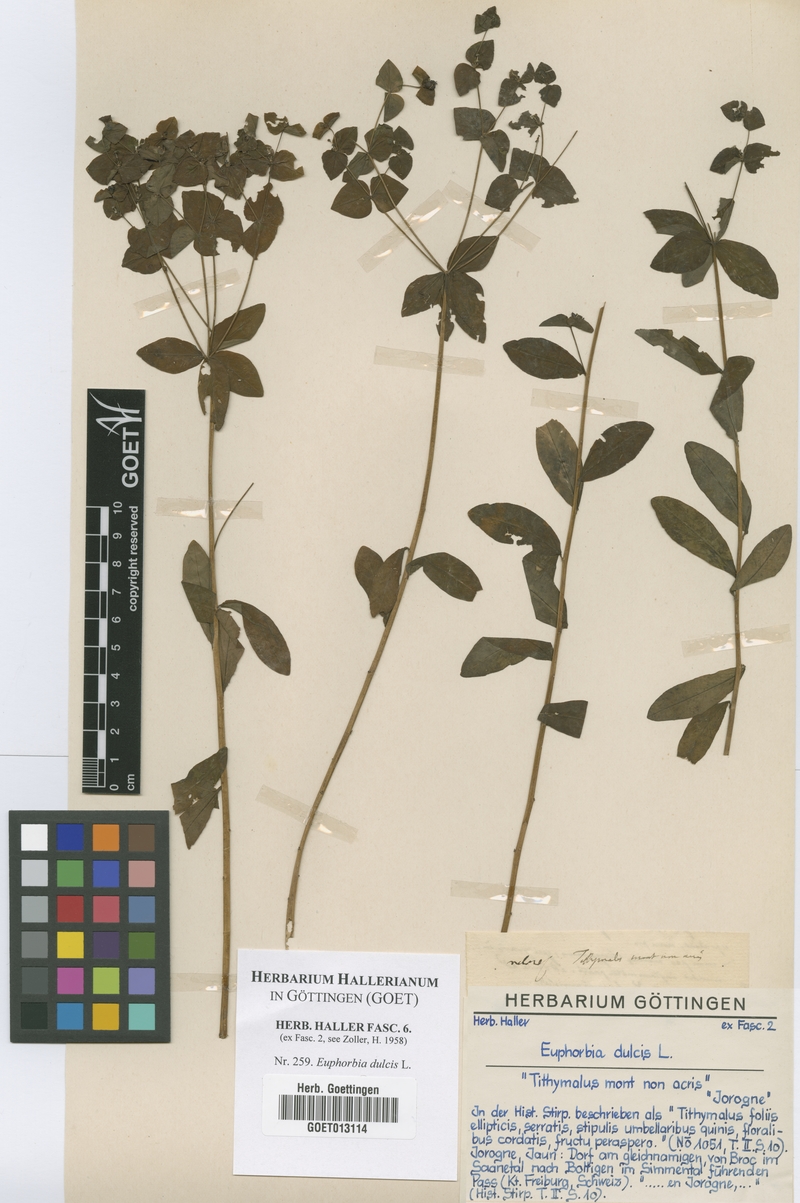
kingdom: Plantae
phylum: Tracheophyta
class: Magnoliopsida
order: Malpighiales
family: Euphorbiaceae
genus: Euphorbia
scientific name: Euphorbia dulcis
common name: Sweet spurge
